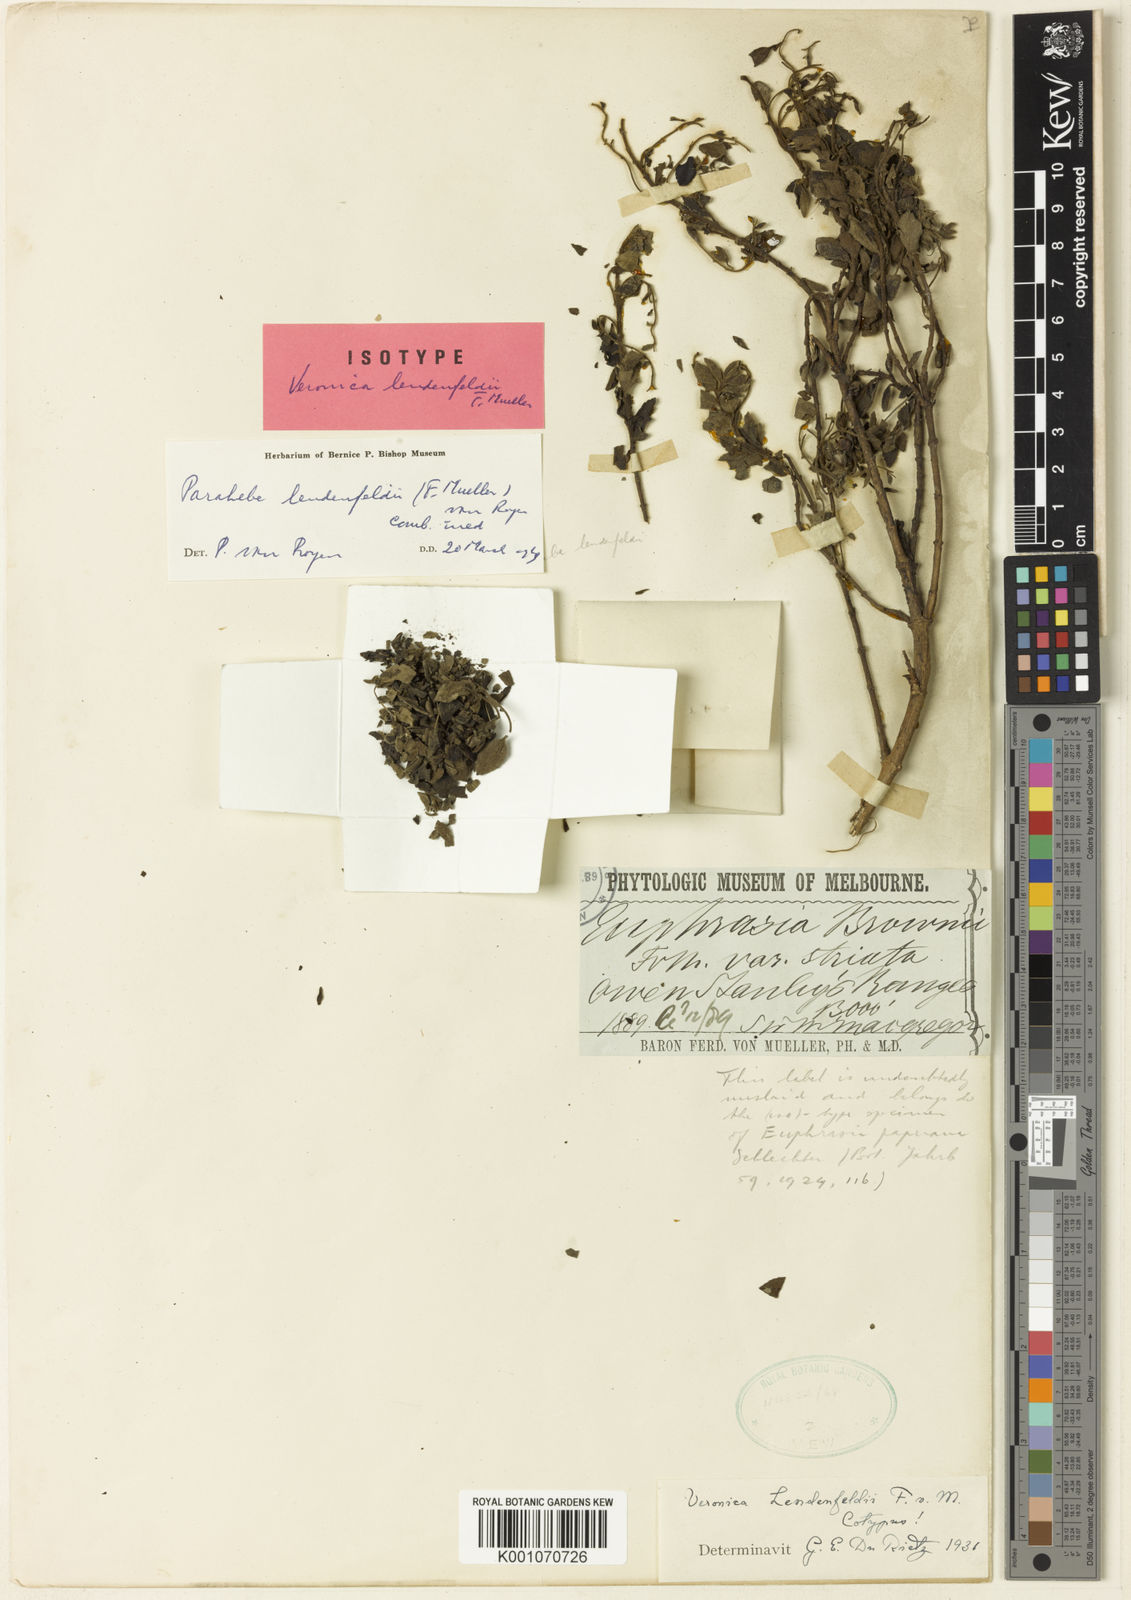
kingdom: Plantae
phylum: Tracheophyta
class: Magnoliopsida
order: Lamiales
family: Plantaginaceae
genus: Veronica
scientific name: Veronica lendenfeldii
